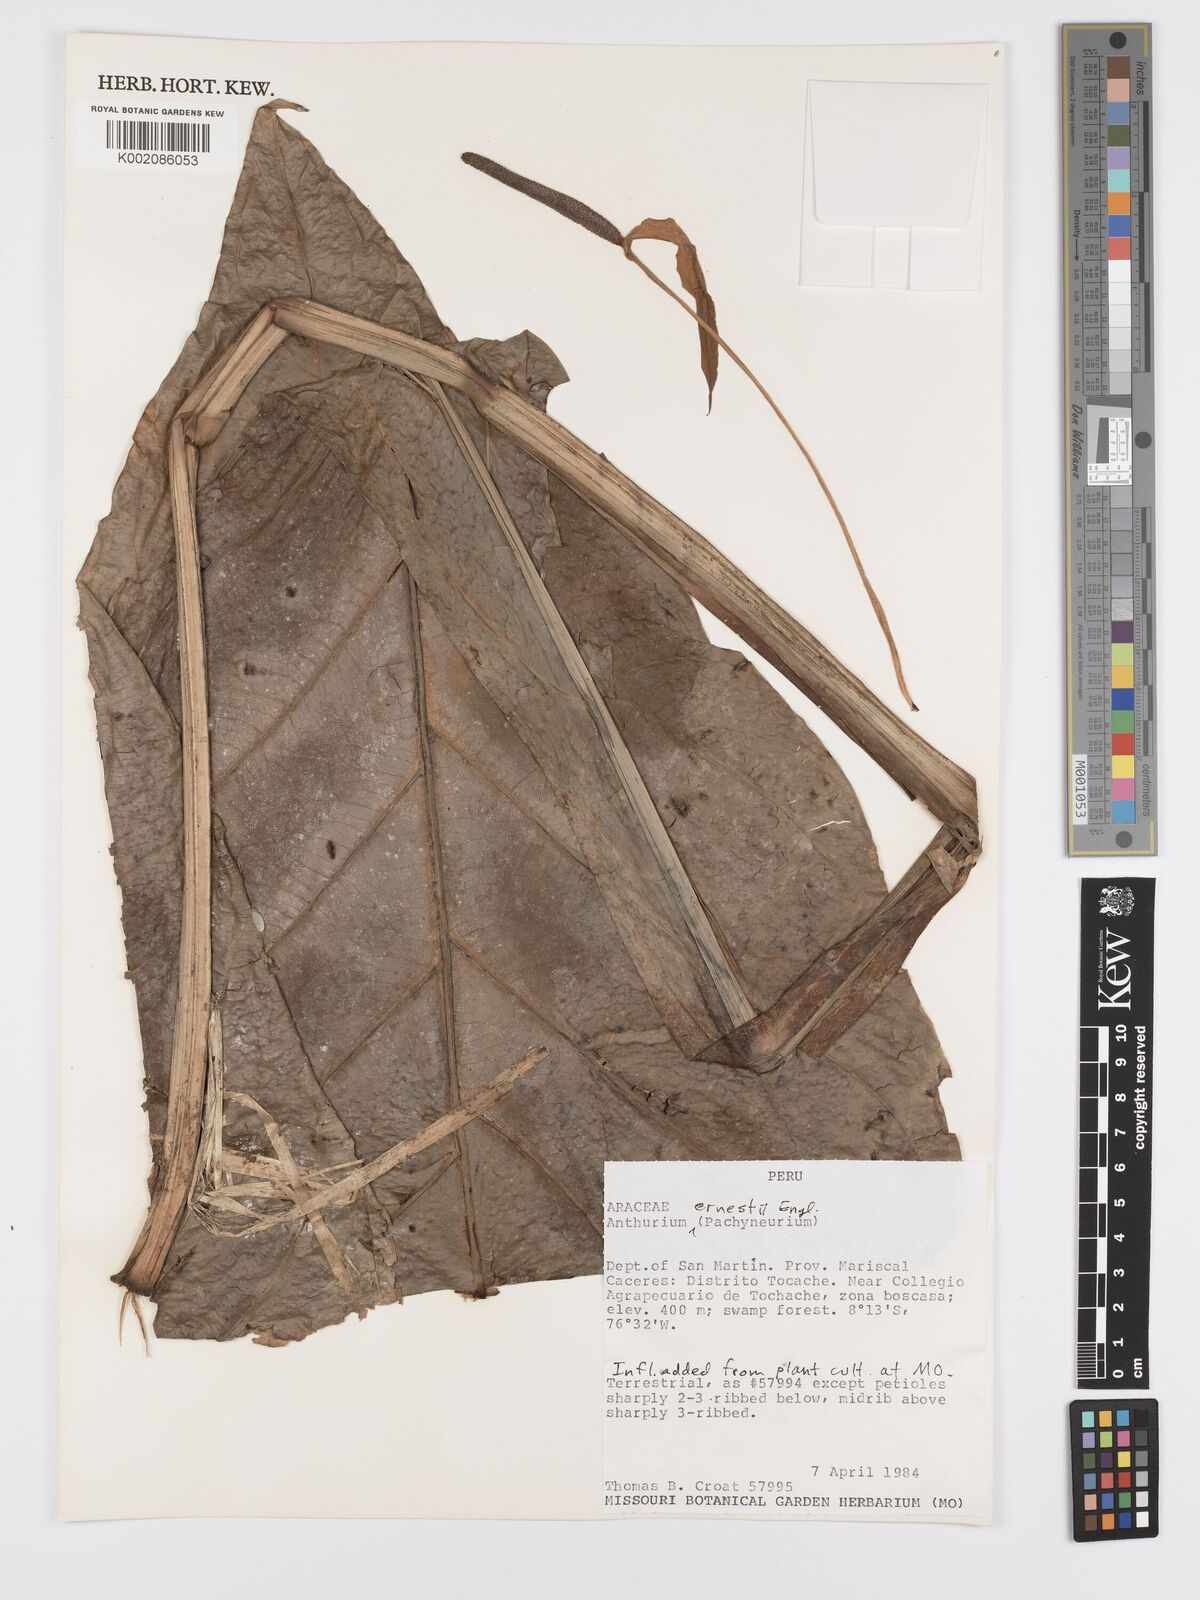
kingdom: Plantae
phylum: Tracheophyta
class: Liliopsida
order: Alismatales
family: Araceae
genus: Anthurium
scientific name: Anthurium ernesti
